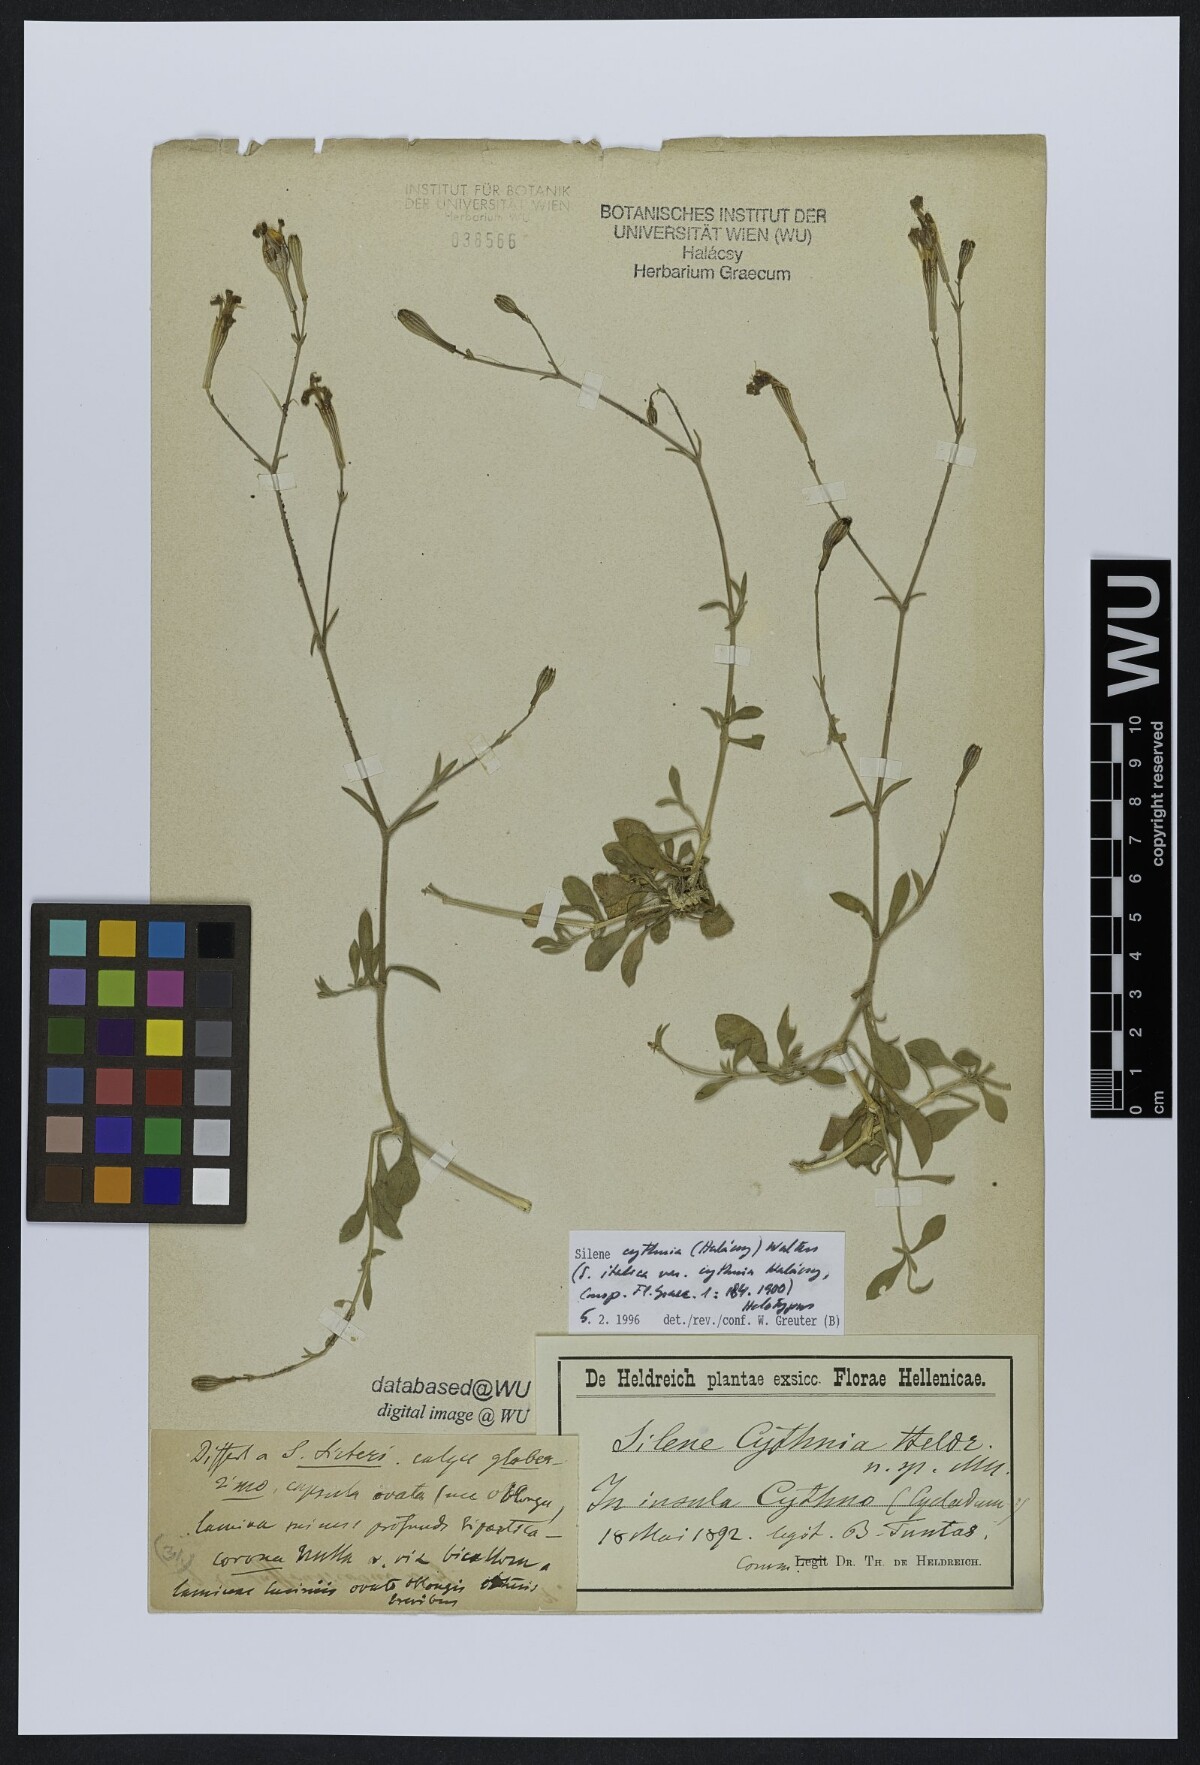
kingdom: Plantae
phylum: Tracheophyta
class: Magnoliopsida
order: Caryophyllales
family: Caryophyllaceae
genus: Silene
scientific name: Silene cythnia
